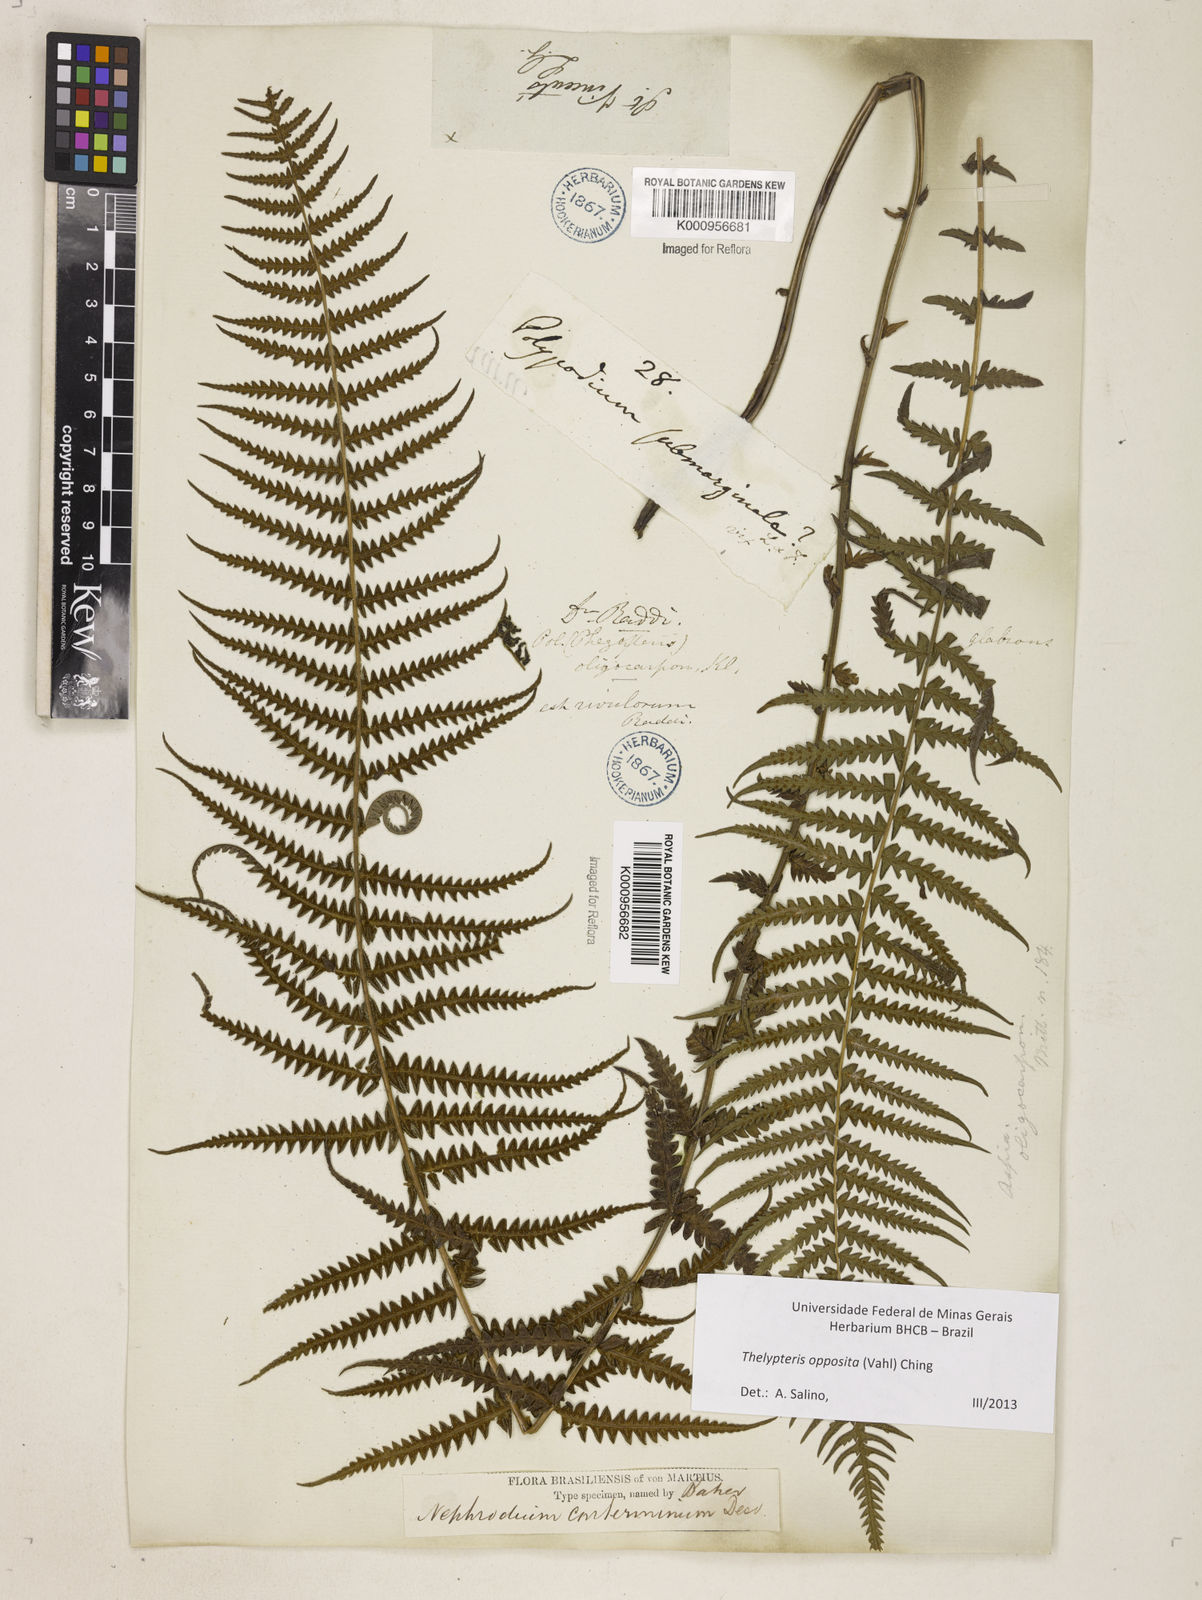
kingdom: Plantae
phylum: Tracheophyta
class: Polypodiopsida
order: Polypodiales
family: Thelypteridaceae
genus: Amauropelta
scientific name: Amauropelta opposita
